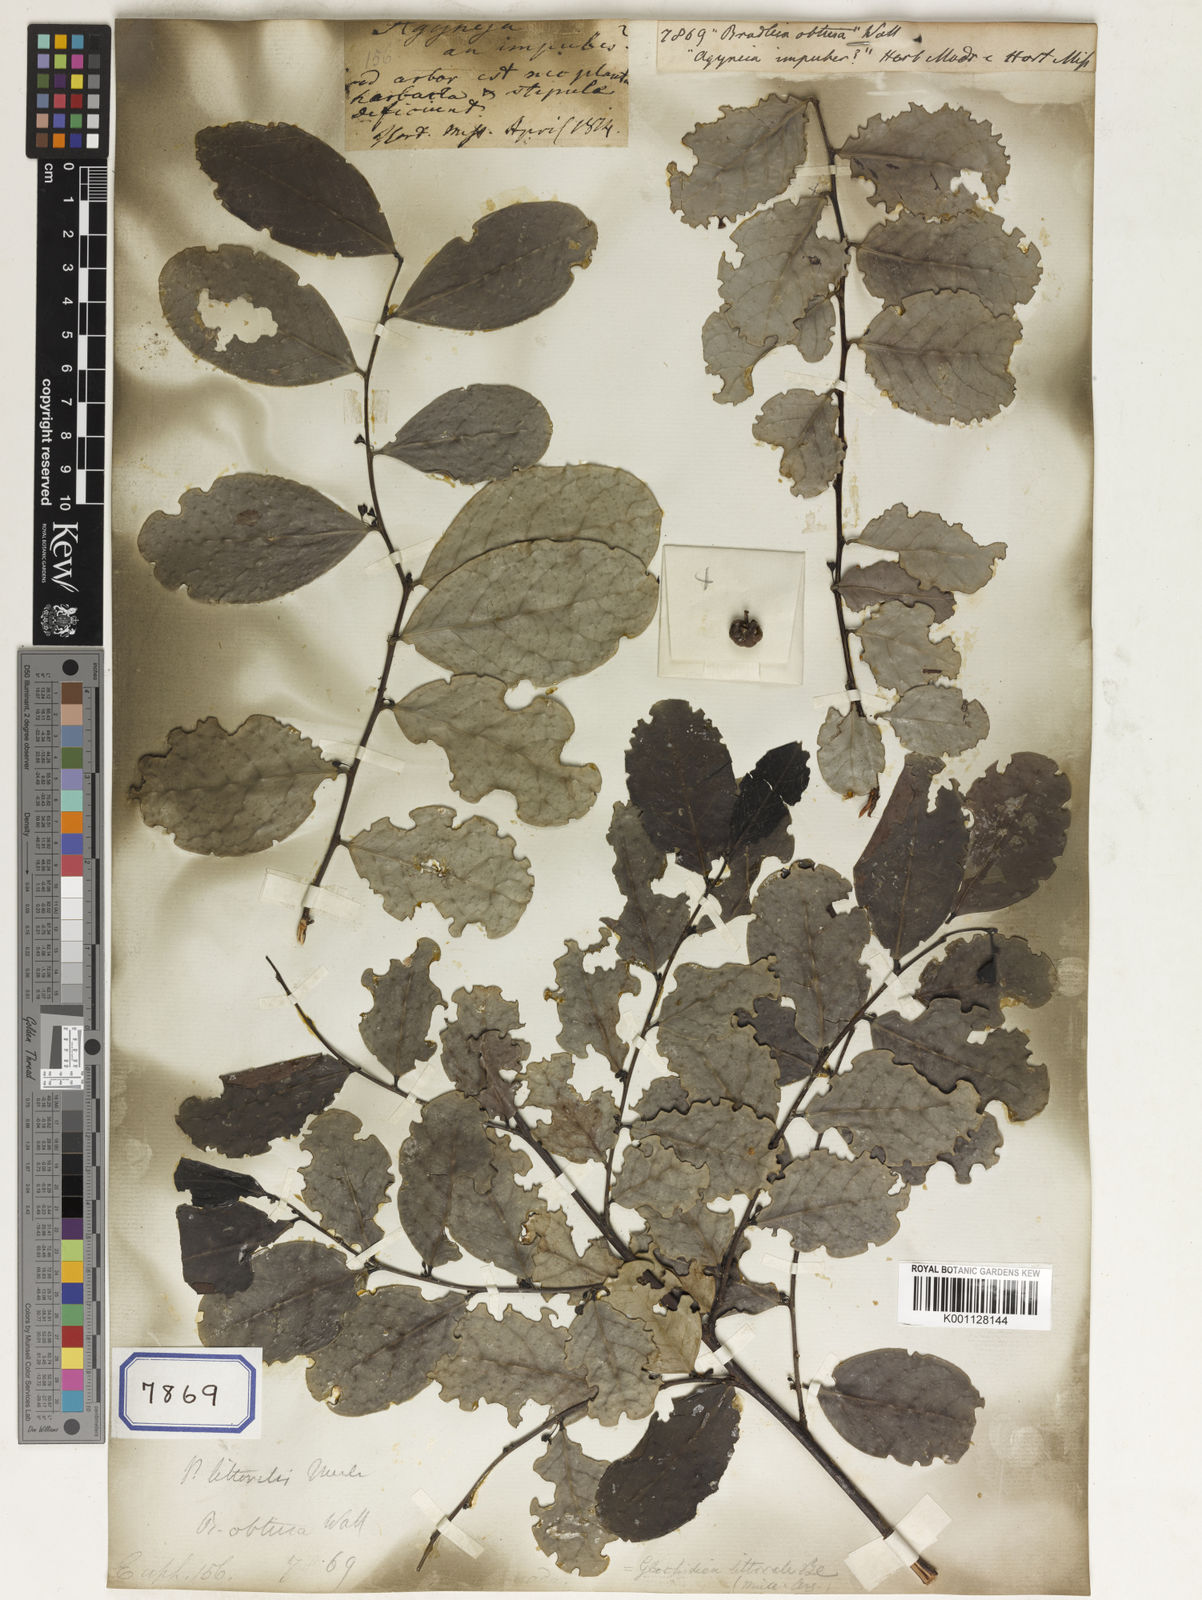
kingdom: Plantae
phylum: Tracheophyta
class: Magnoliopsida
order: Malpighiales
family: Euphorbiaceae
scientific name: Euphorbiaceae
